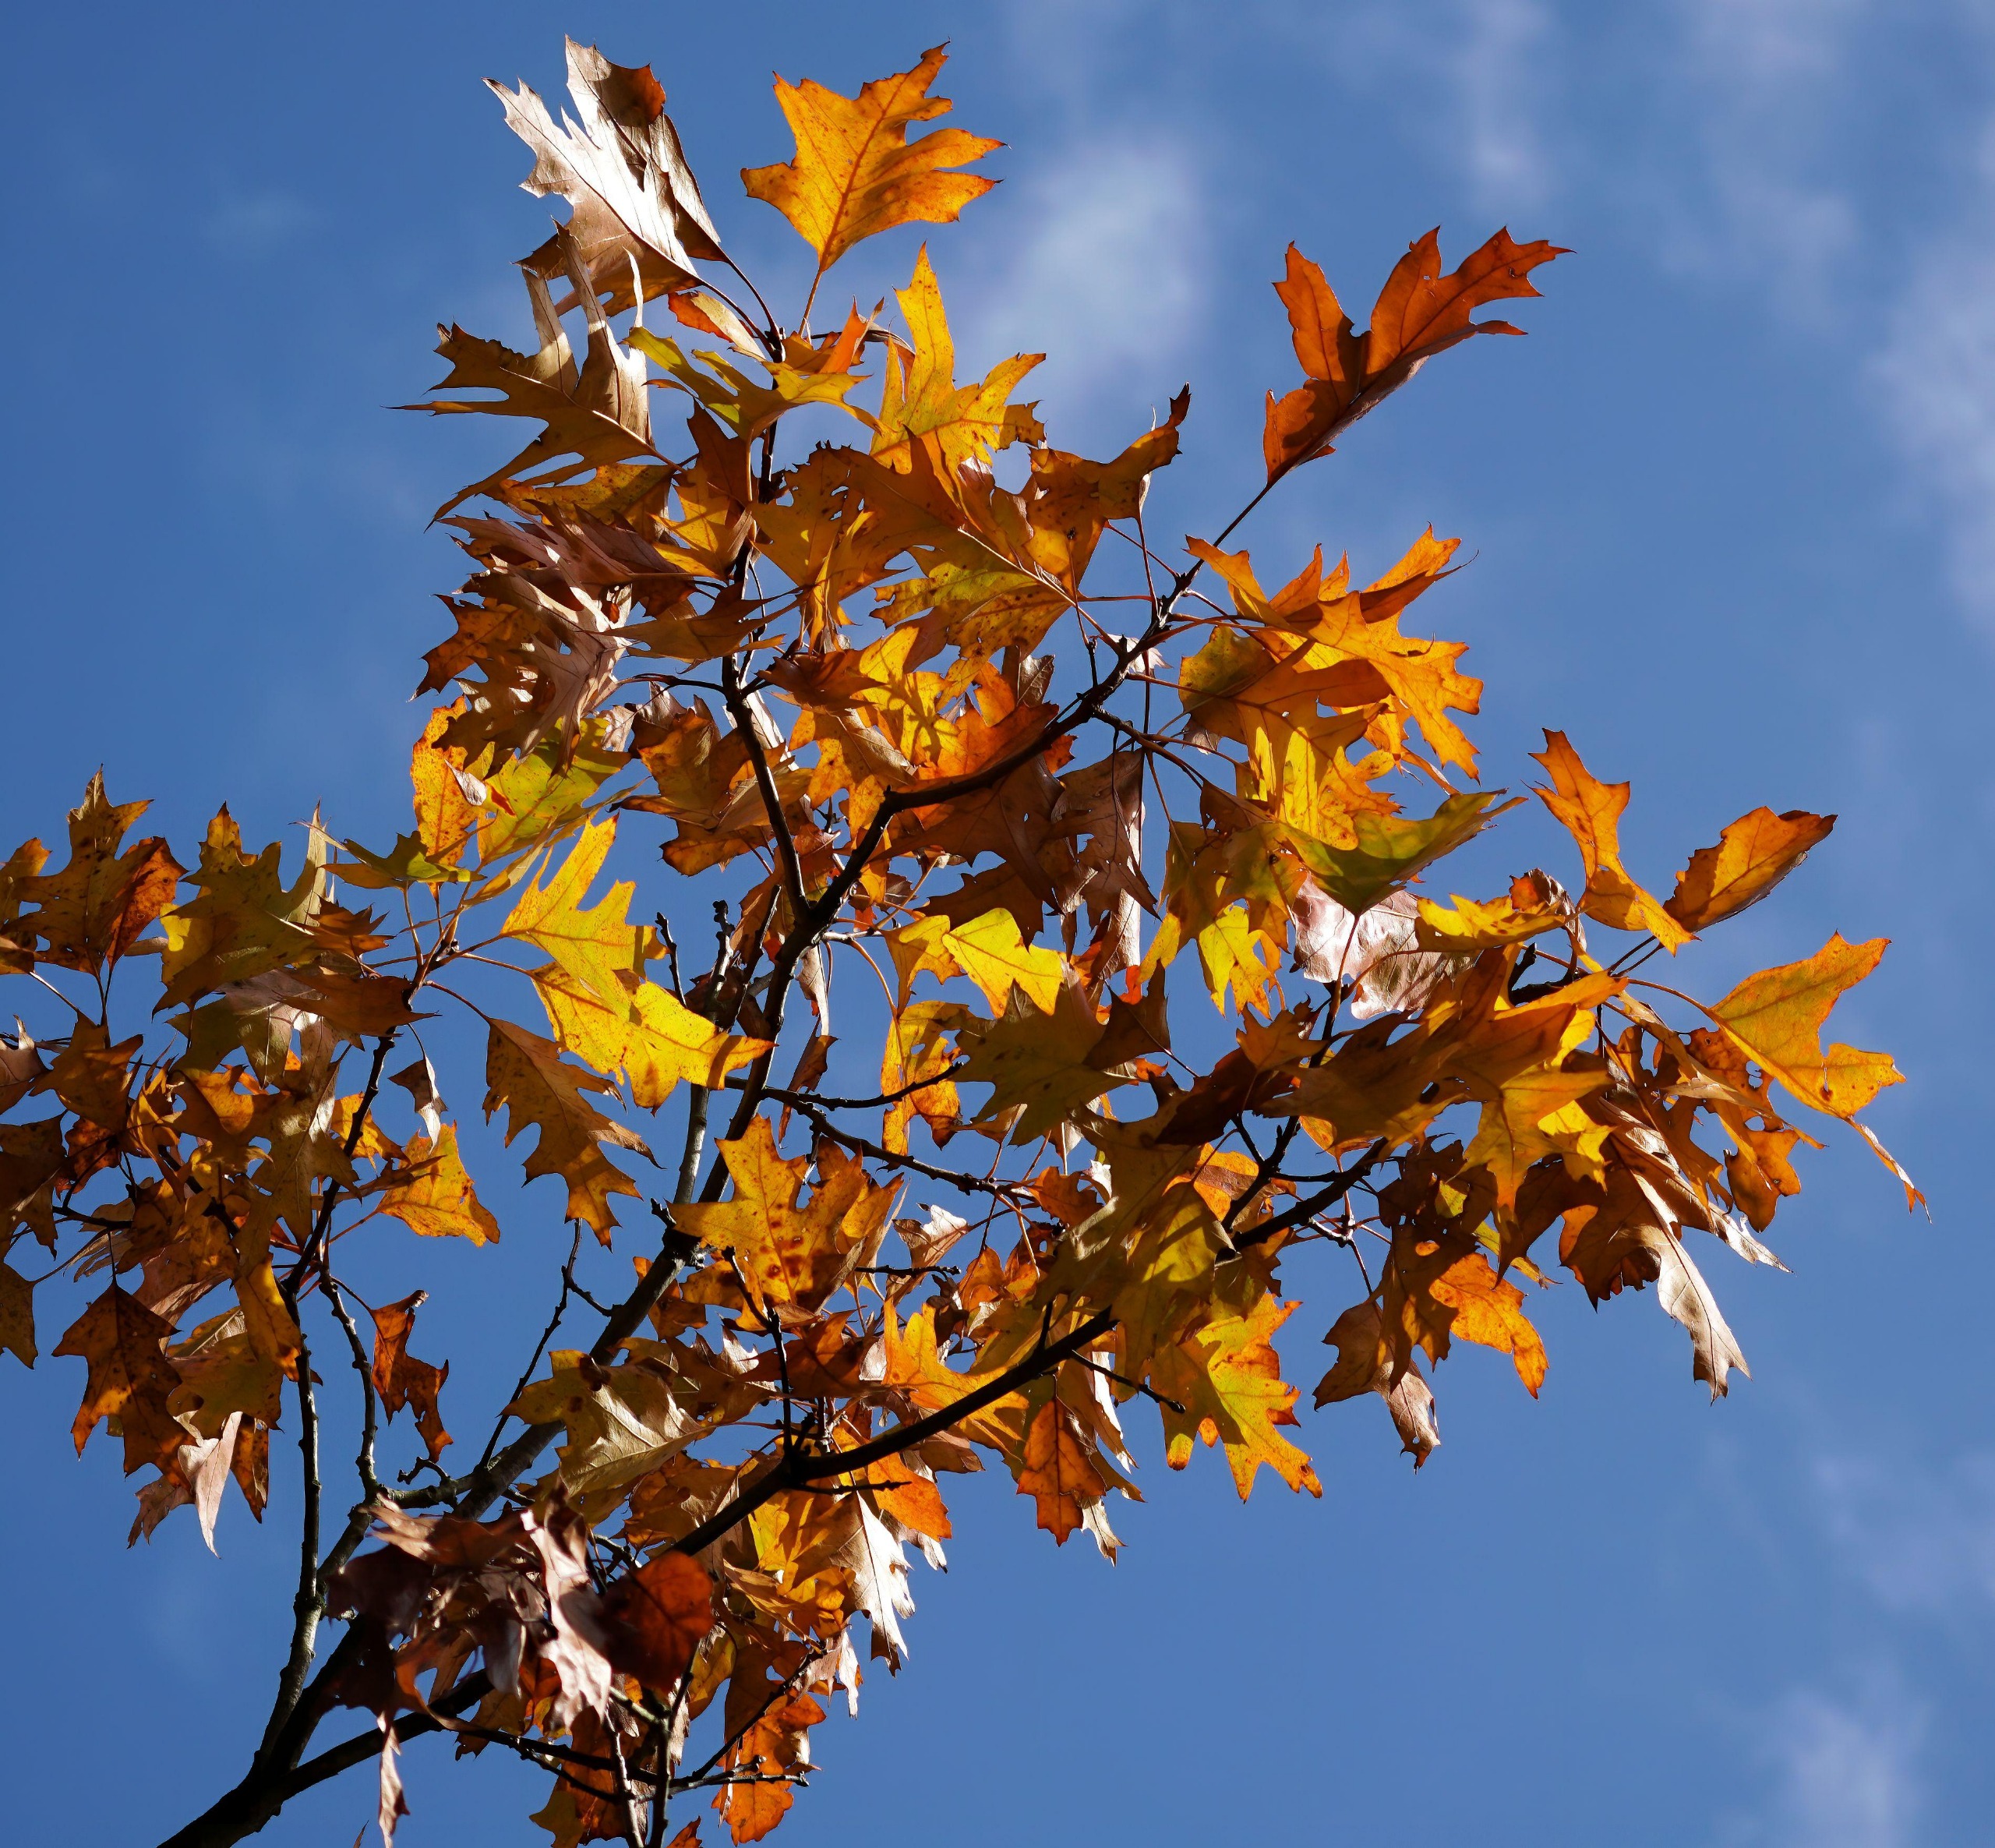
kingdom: Plantae
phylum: Tracheophyta
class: Magnoliopsida
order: Fagales
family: Fagaceae
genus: Quercus
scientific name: Quercus rubra
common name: Rød-eg
